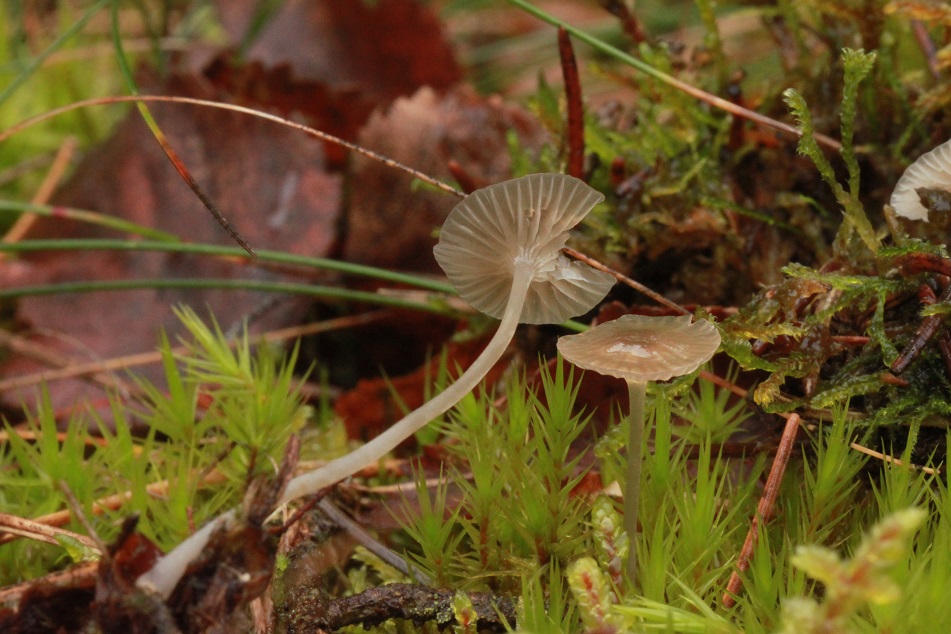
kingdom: Fungi
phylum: Basidiomycota
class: Agaricomycetes
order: Agaricales
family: Mycenaceae
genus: Mycena
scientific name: Mycena cinerella
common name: mel-huesvamp
